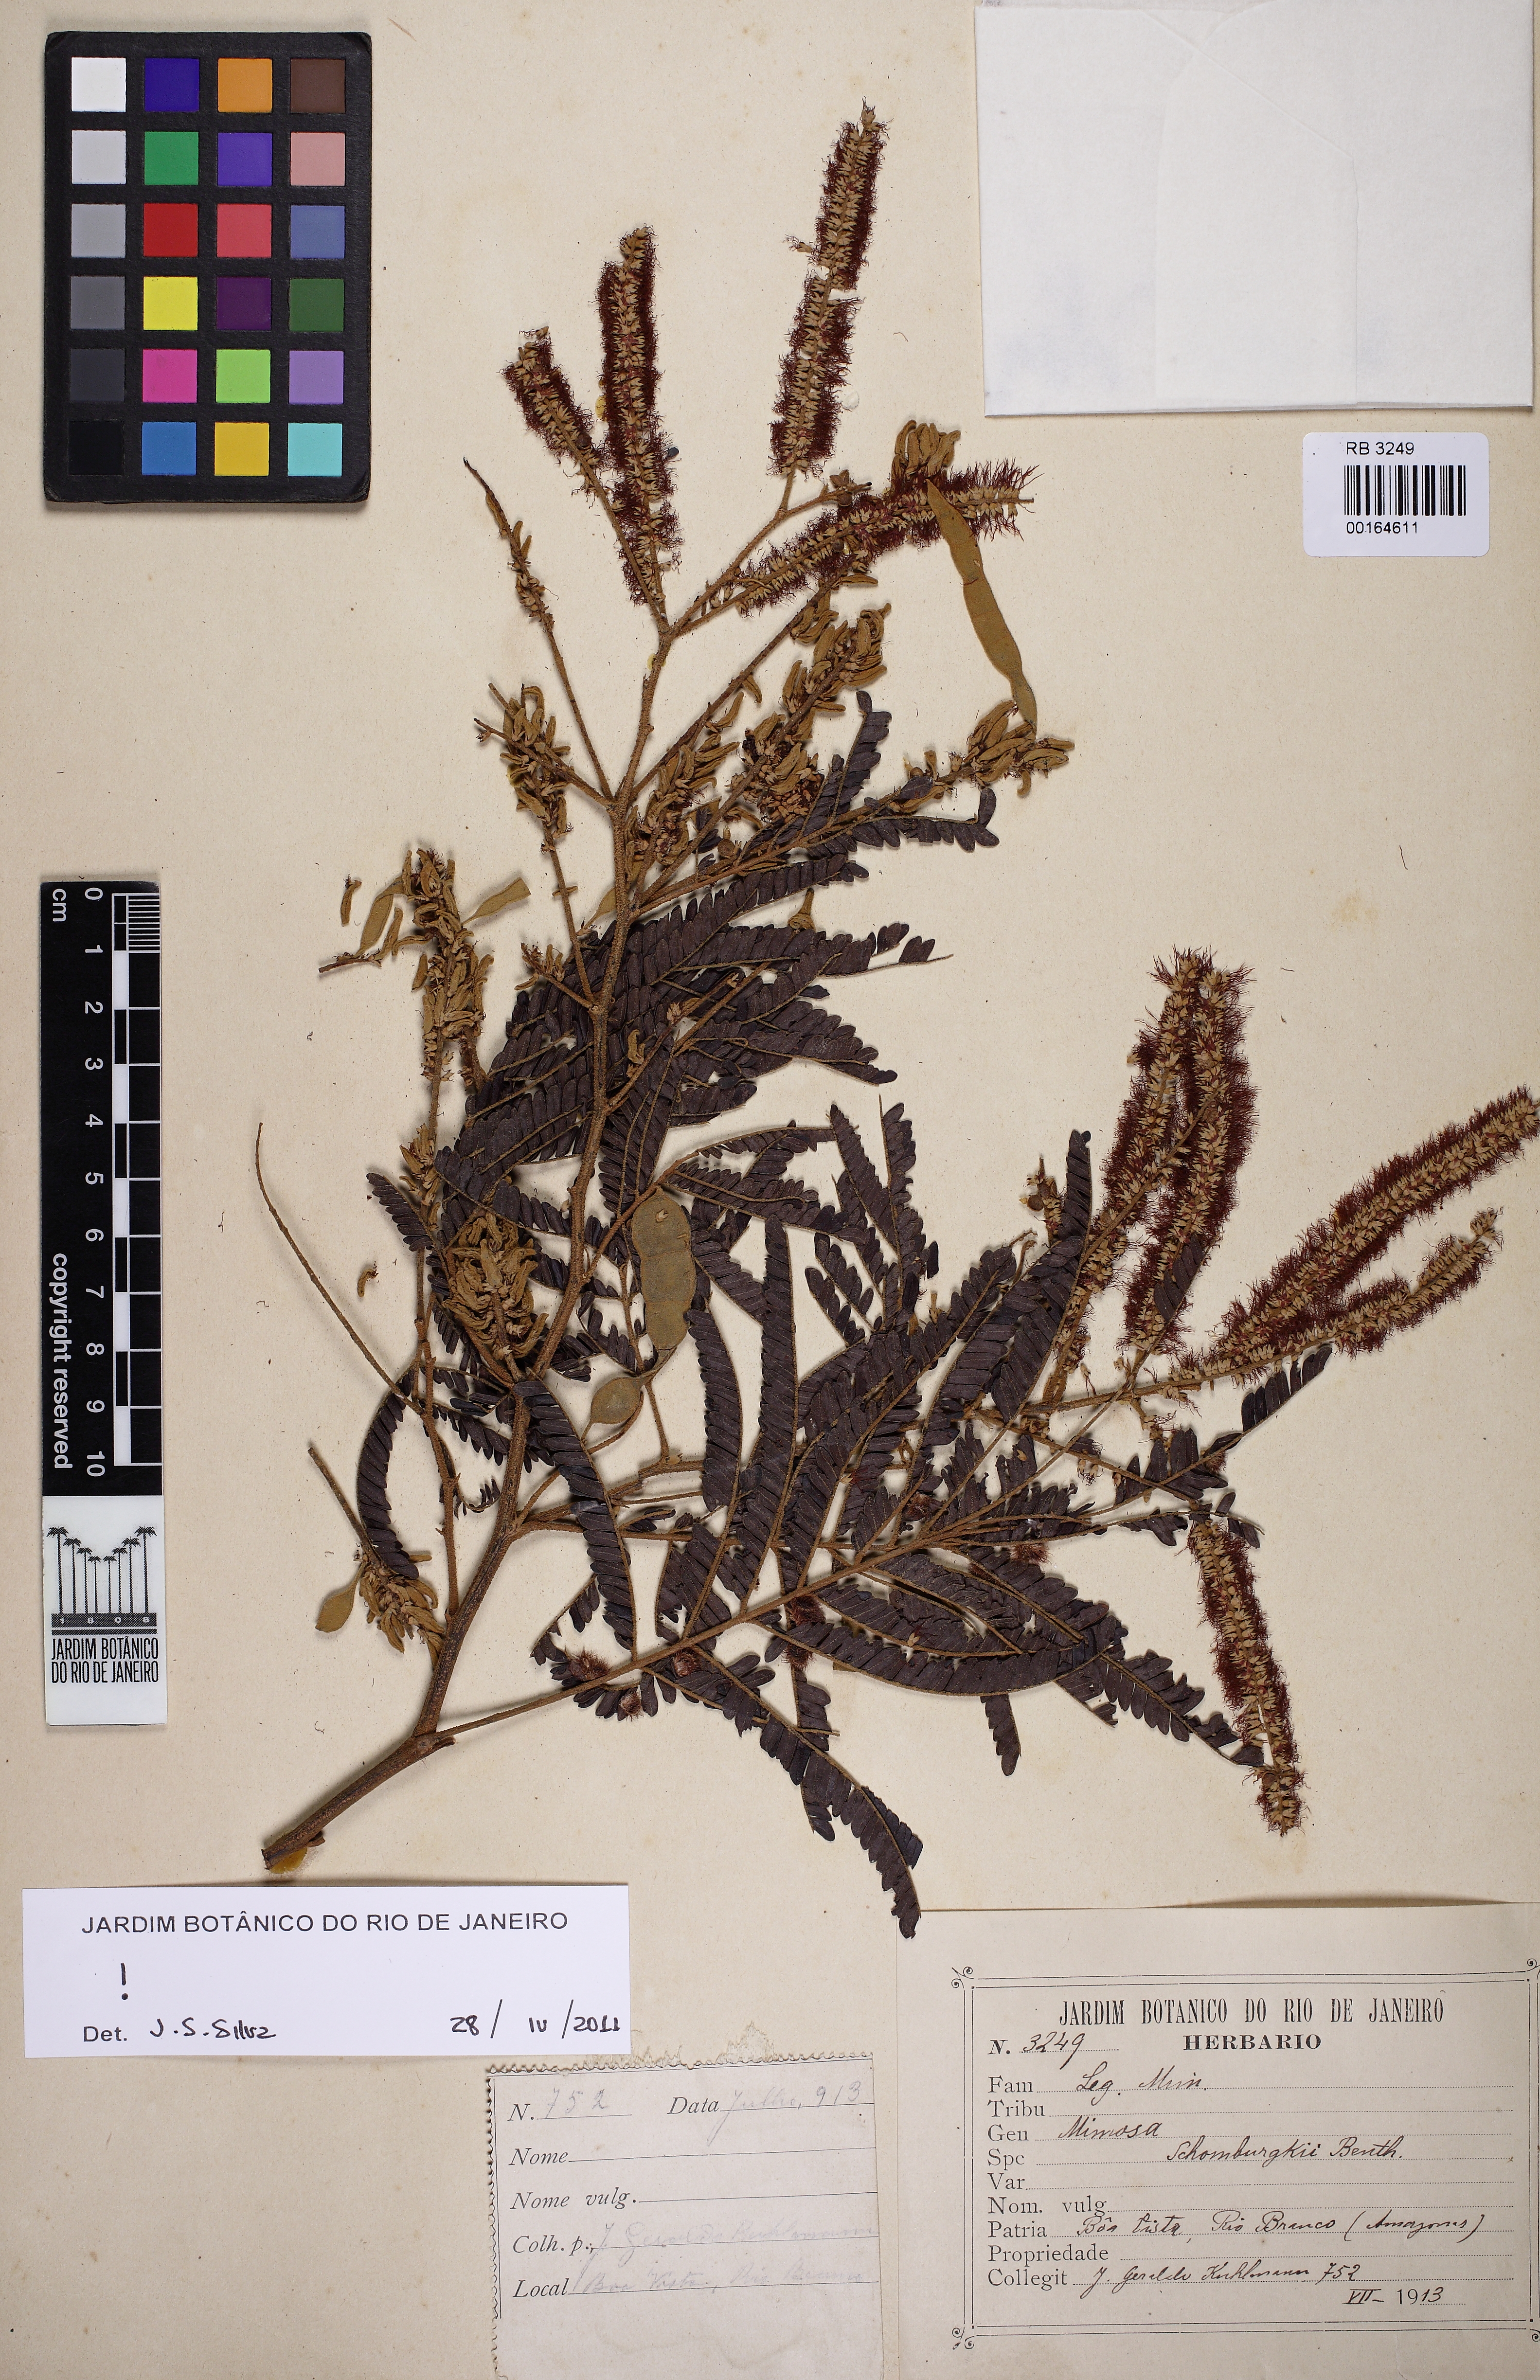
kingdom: Plantae
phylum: Tracheophyta
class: Magnoliopsida
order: Fabales
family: Fabaceae
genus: Mimosa
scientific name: Mimosa schomburgkii
